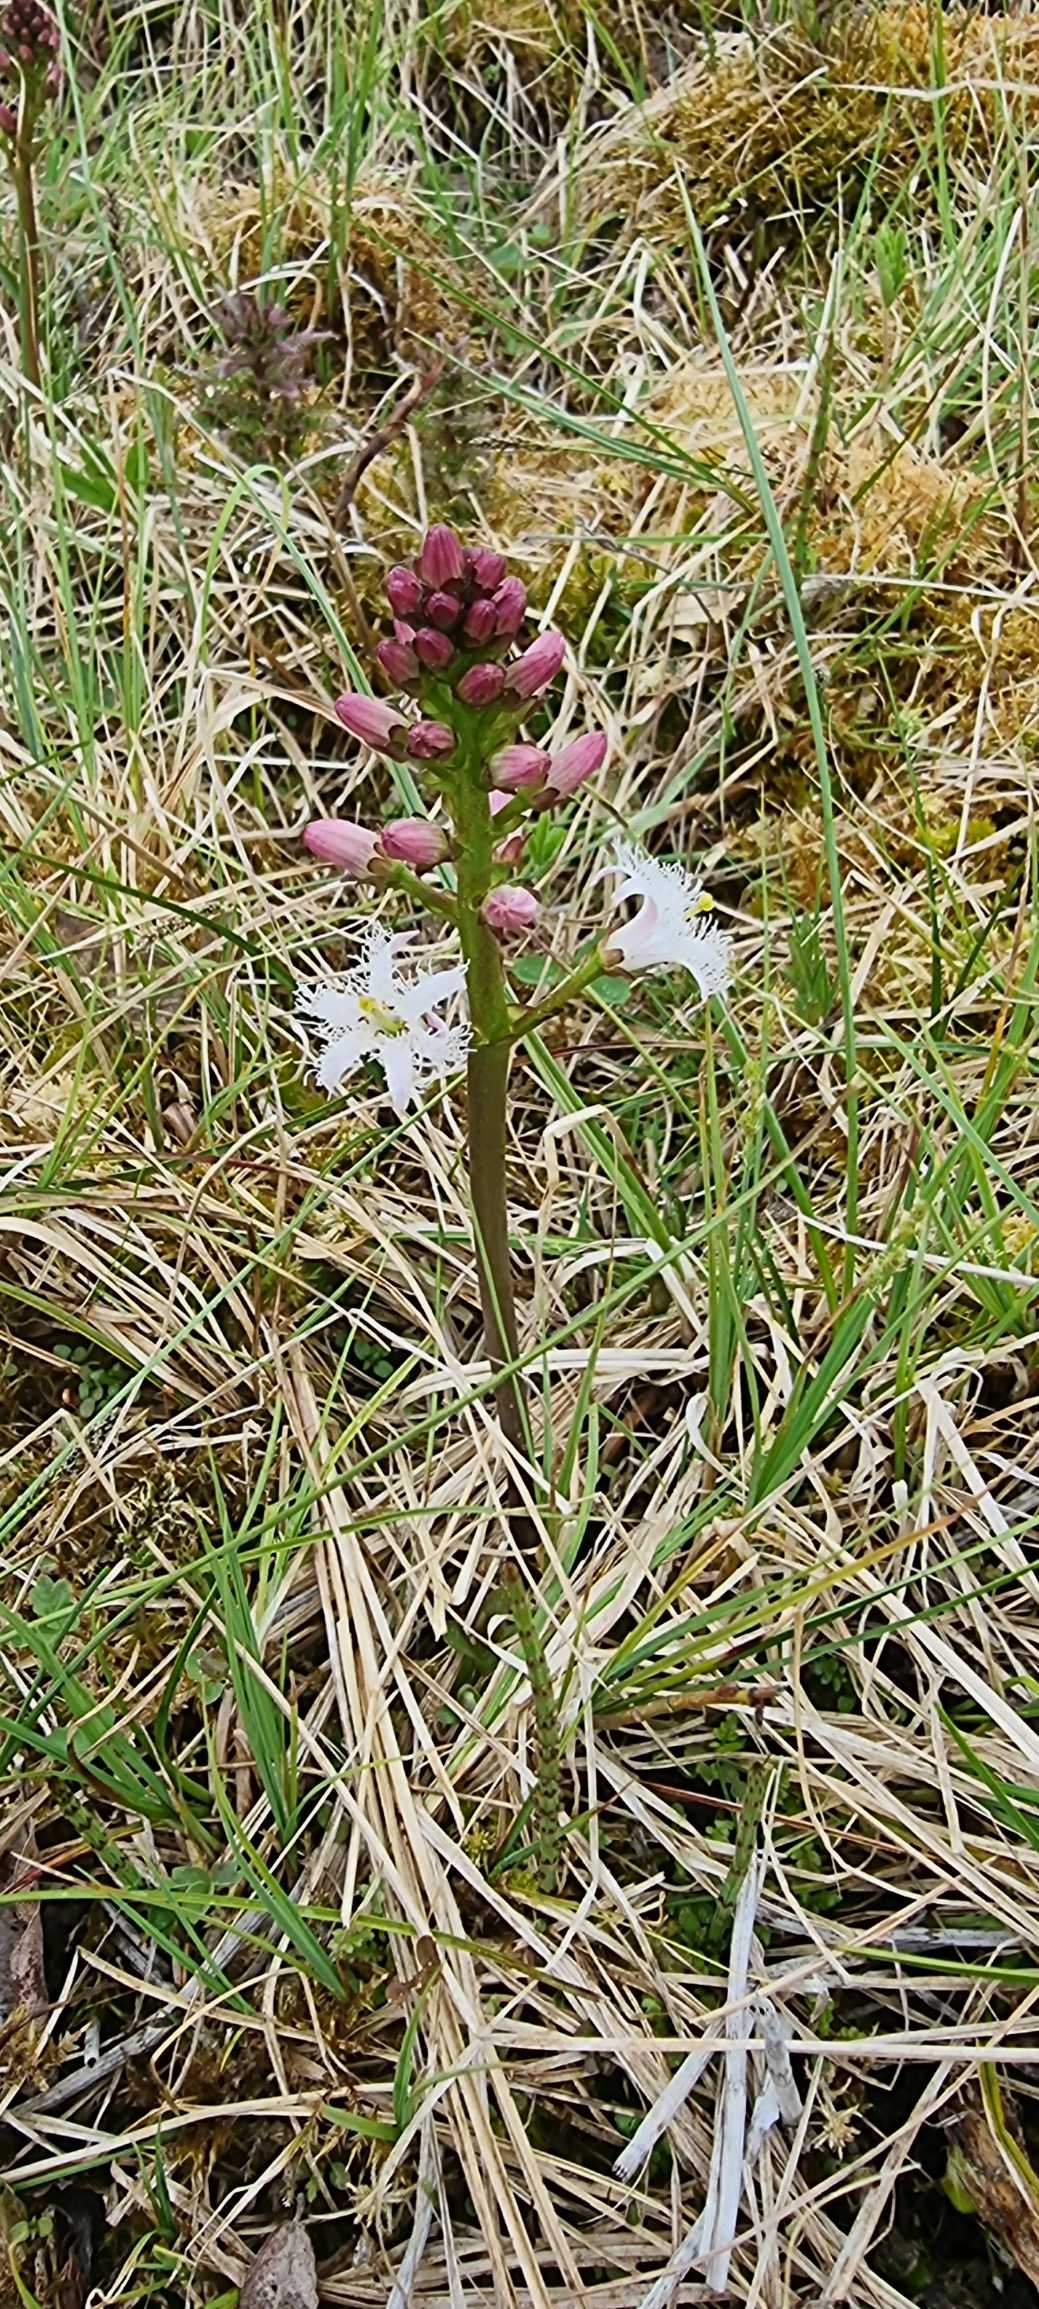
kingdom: Plantae
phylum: Tracheophyta
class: Magnoliopsida
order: Asterales
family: Menyanthaceae
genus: Menyanthes
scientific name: Menyanthes trifoliata
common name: Bukkeblad
